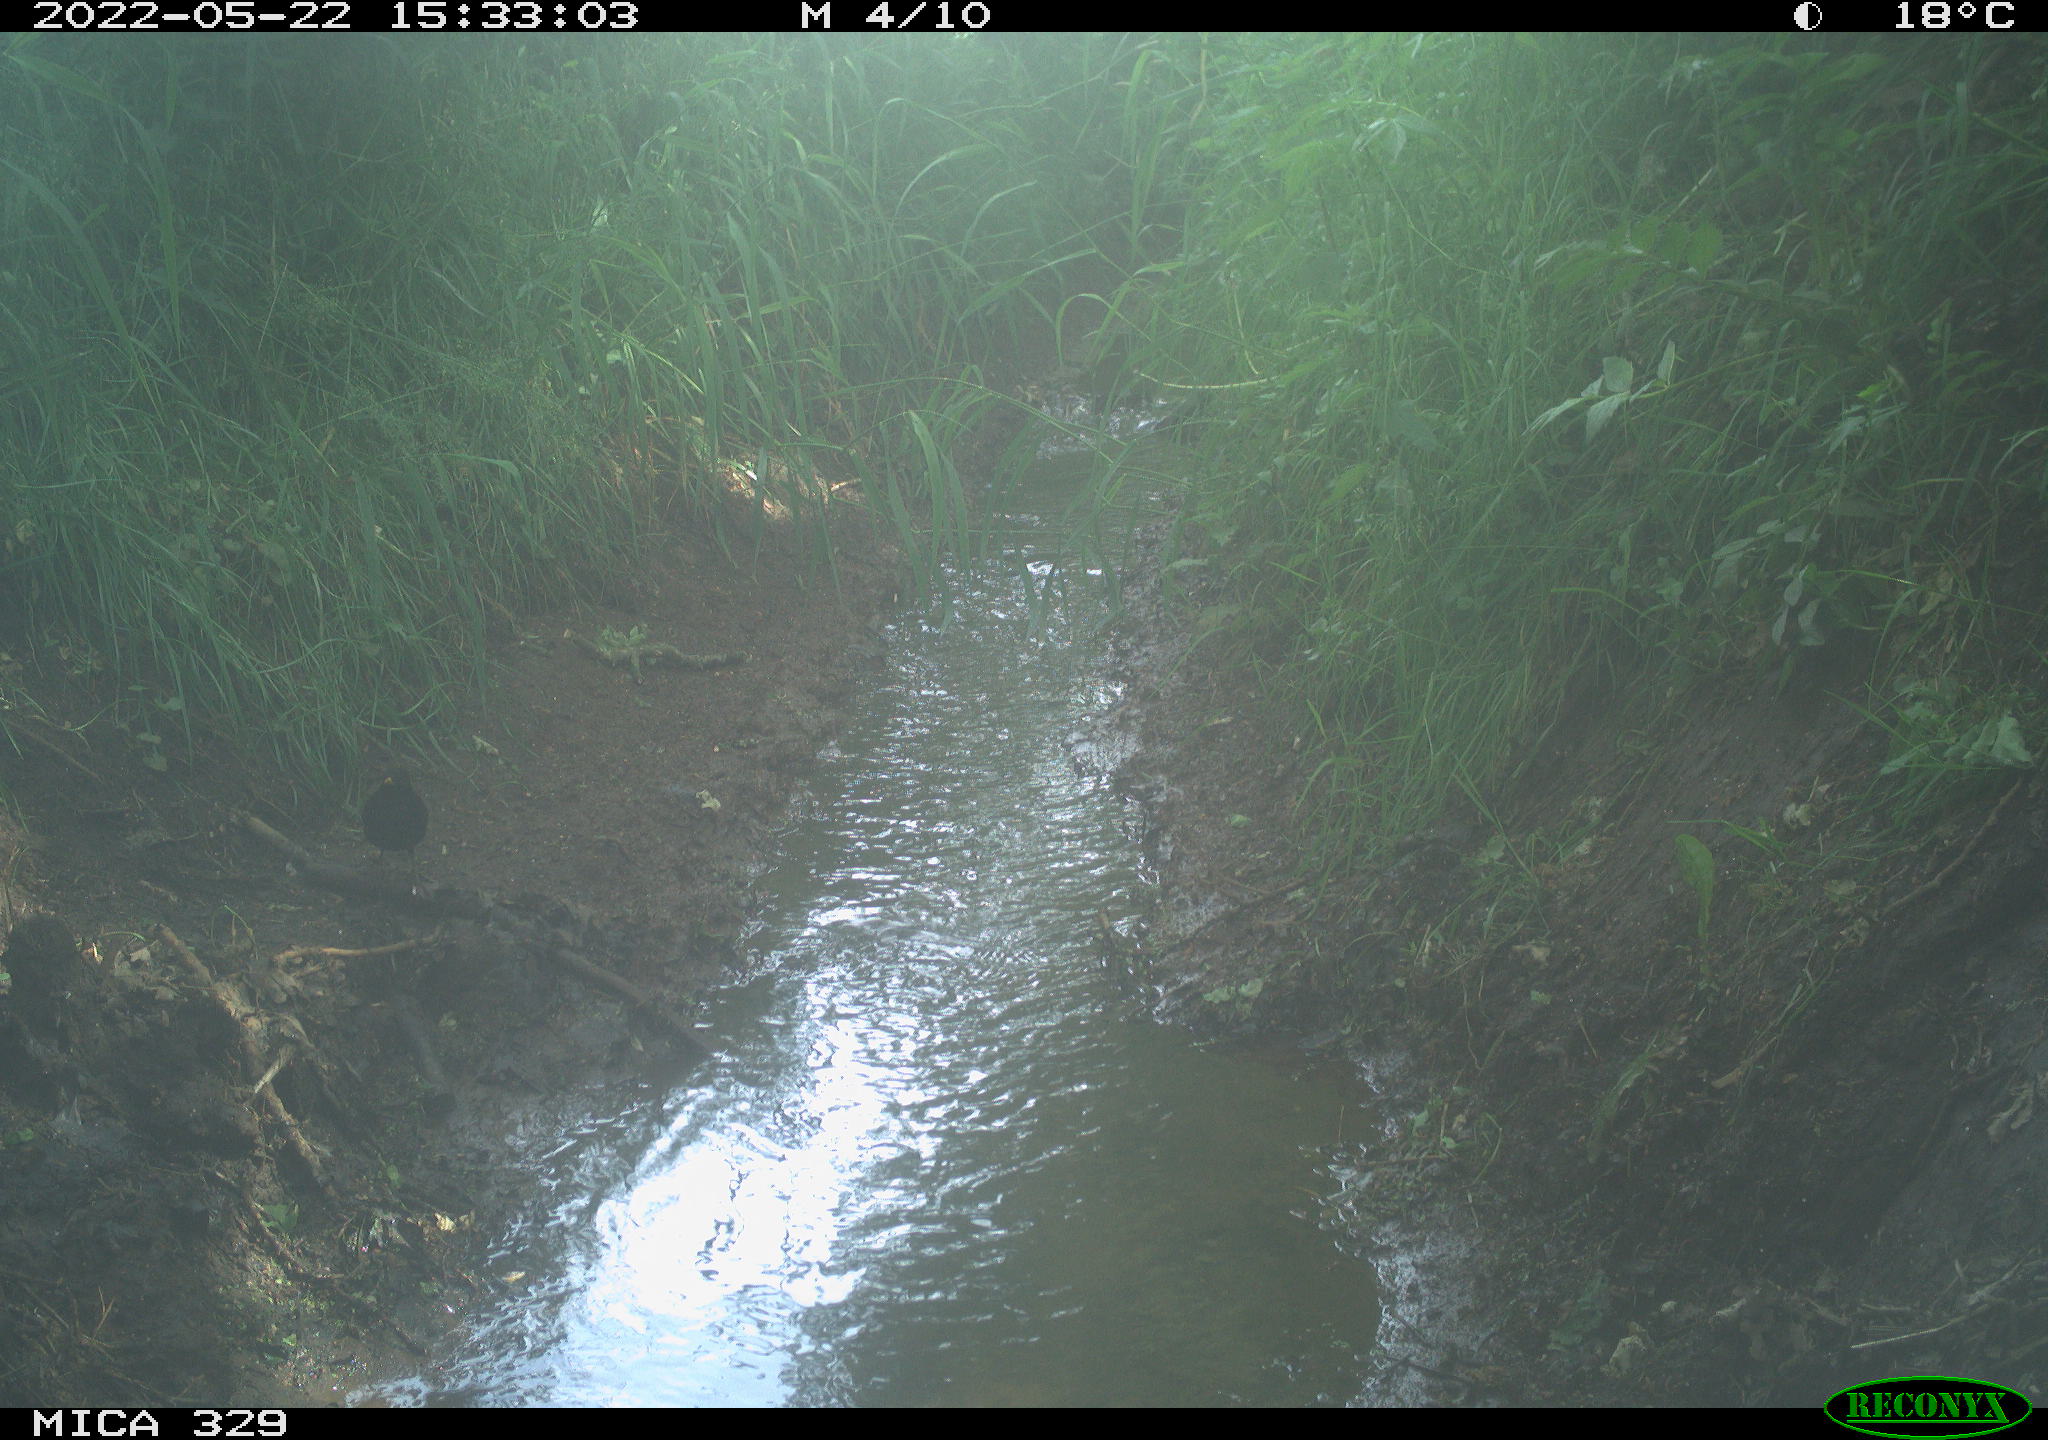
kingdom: Animalia
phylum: Chordata
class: Aves
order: Passeriformes
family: Turdidae
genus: Turdus
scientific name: Turdus merula
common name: Common blackbird
